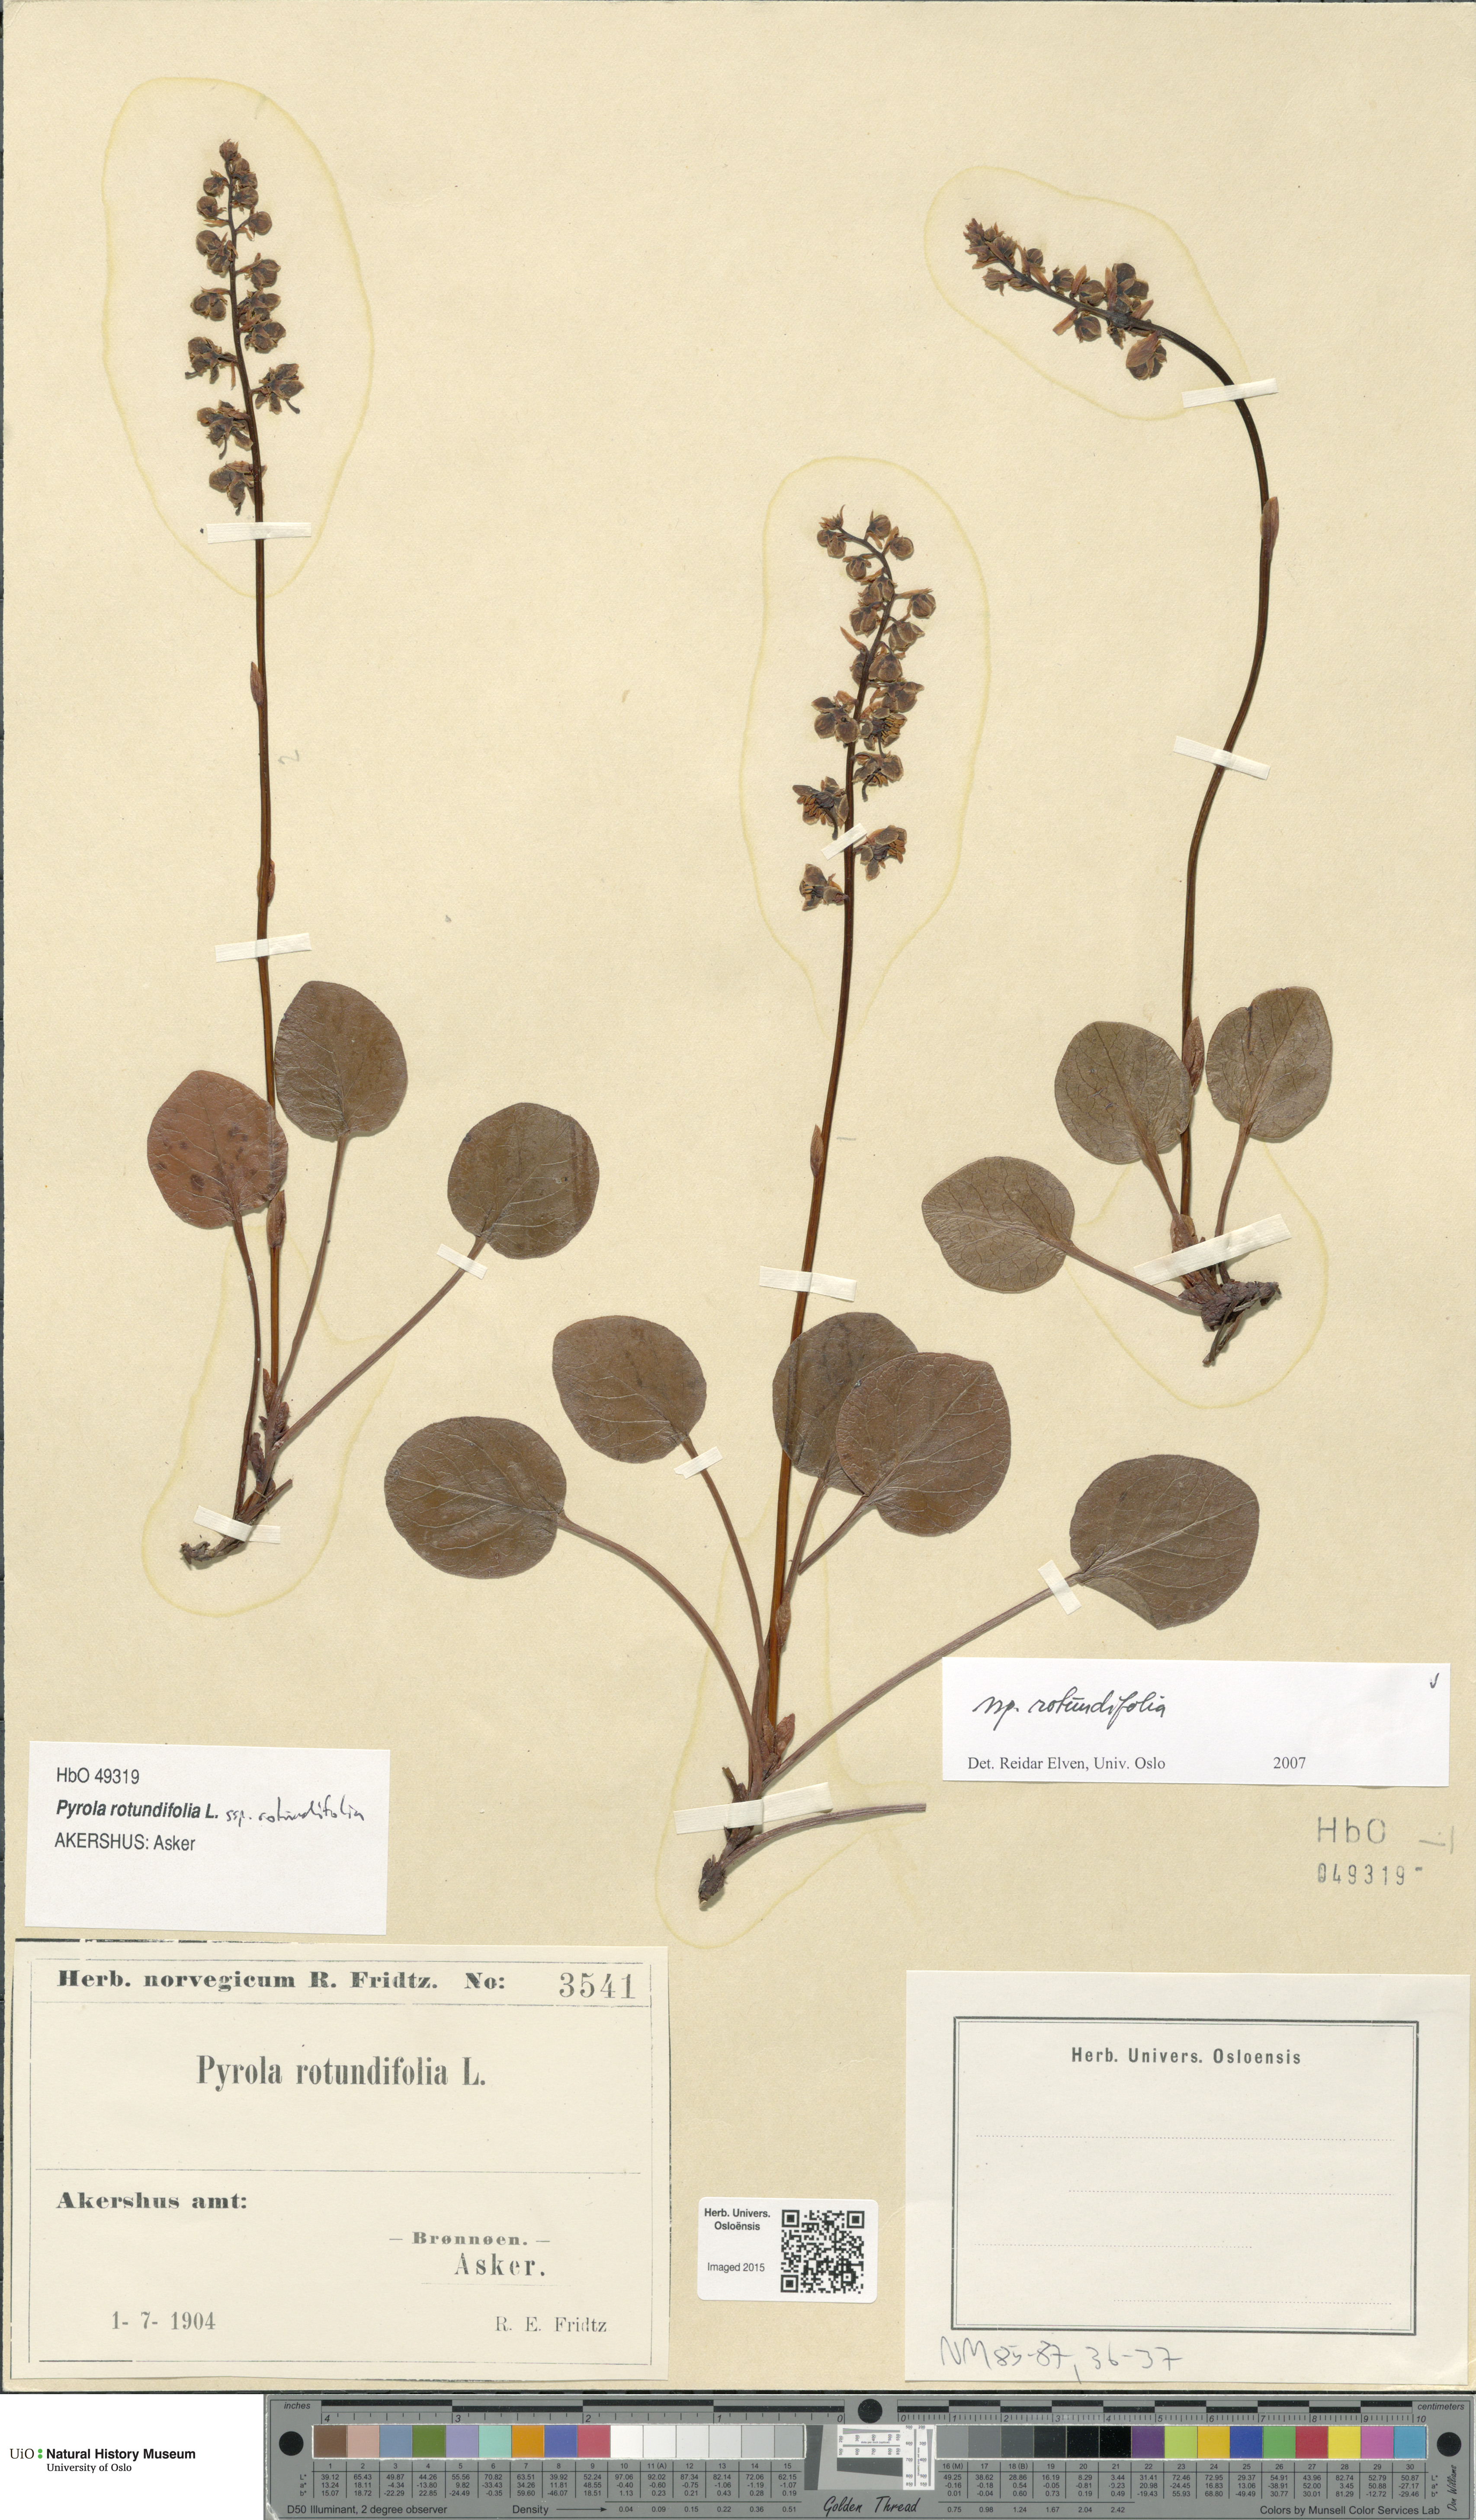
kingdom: Plantae
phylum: Tracheophyta
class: Magnoliopsida
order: Ericales
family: Ericaceae
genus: Pyrola
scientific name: Pyrola rotundifolia
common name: Round-leaved wintergreen
